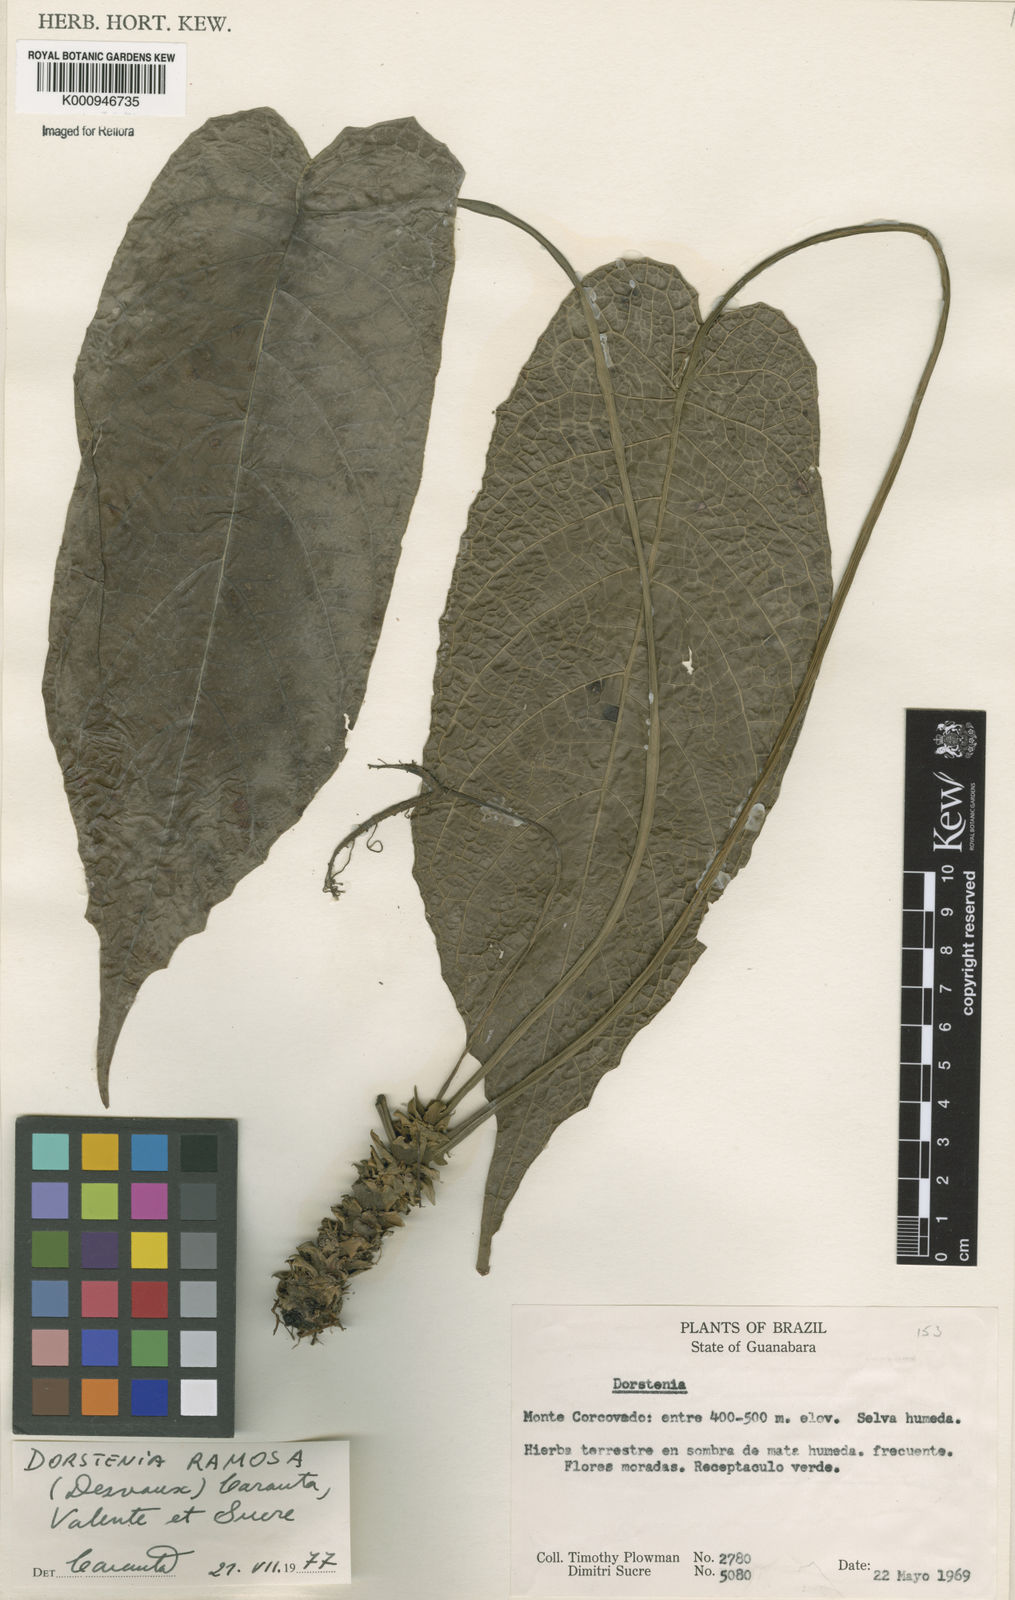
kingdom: Plantae
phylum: Tracheophyta
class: Magnoliopsida
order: Rosales
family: Moraceae
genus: Dorstenia
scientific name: Dorstenia ramosa
